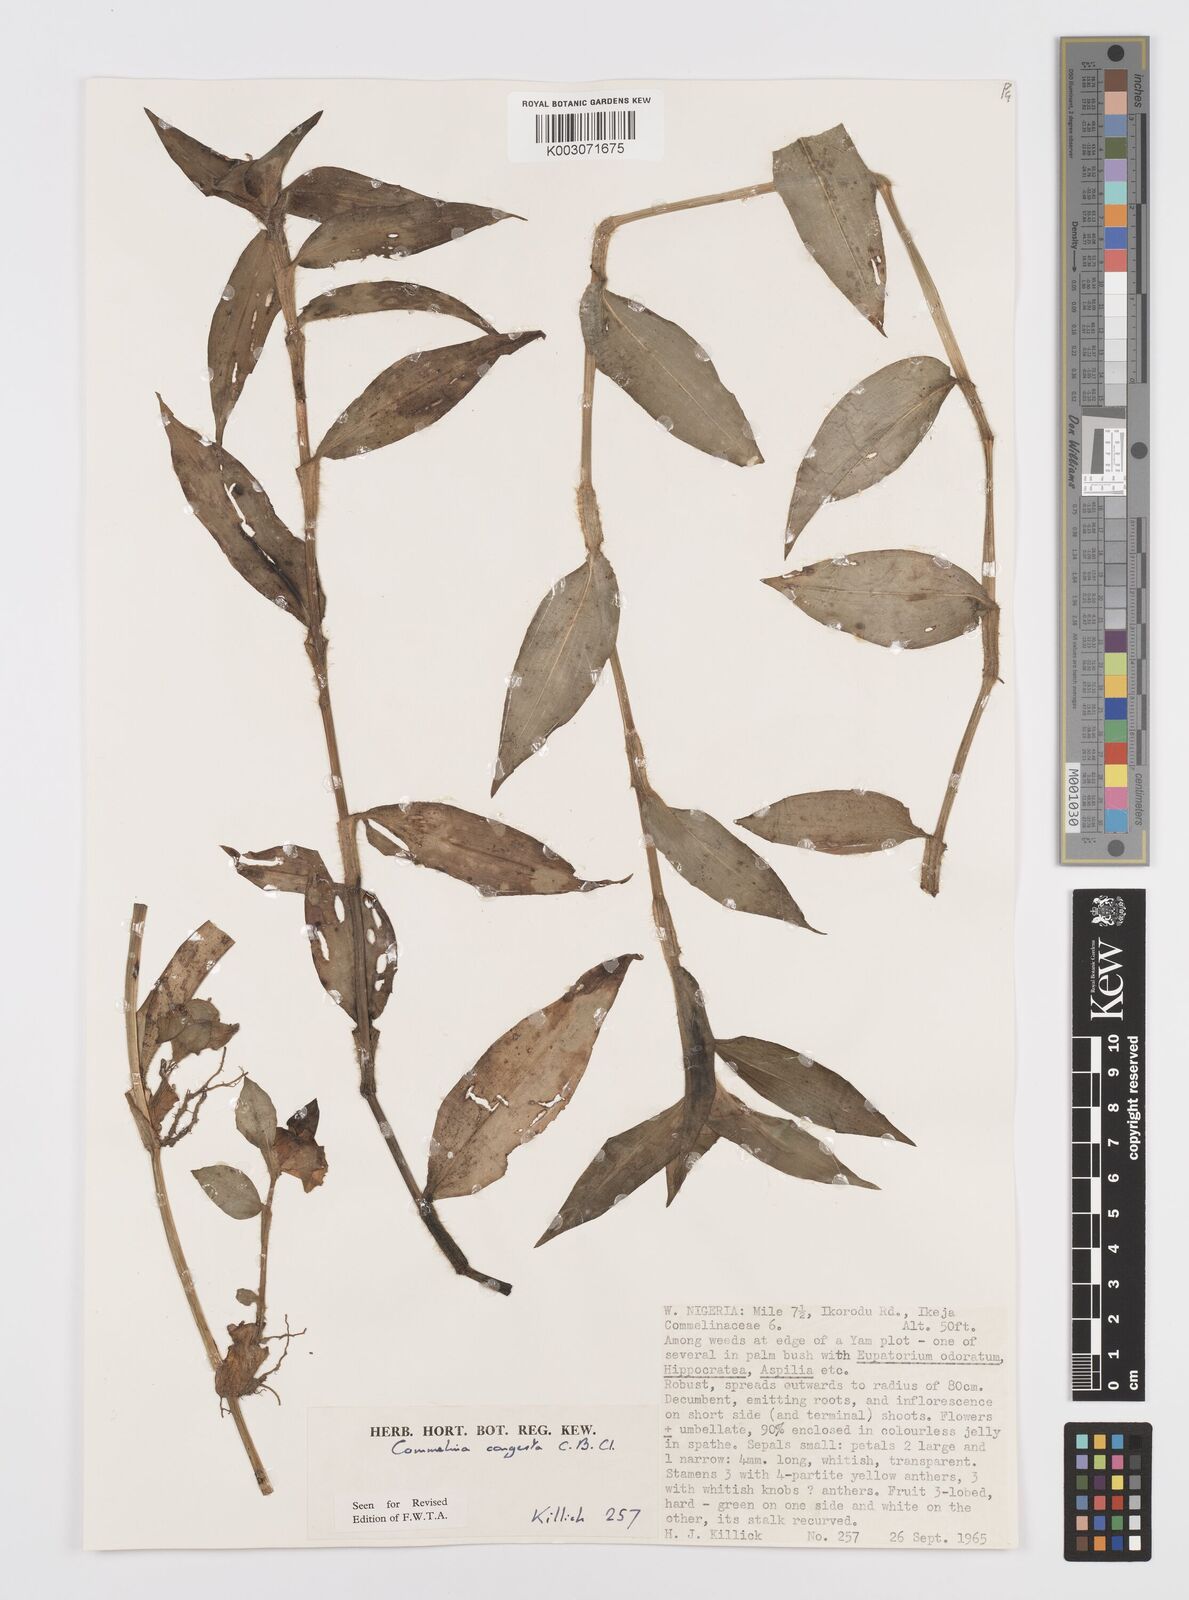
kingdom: Plantae
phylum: Tracheophyta
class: Liliopsida
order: Commelinales
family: Commelinaceae
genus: Commelina
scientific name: Commelina congesta
